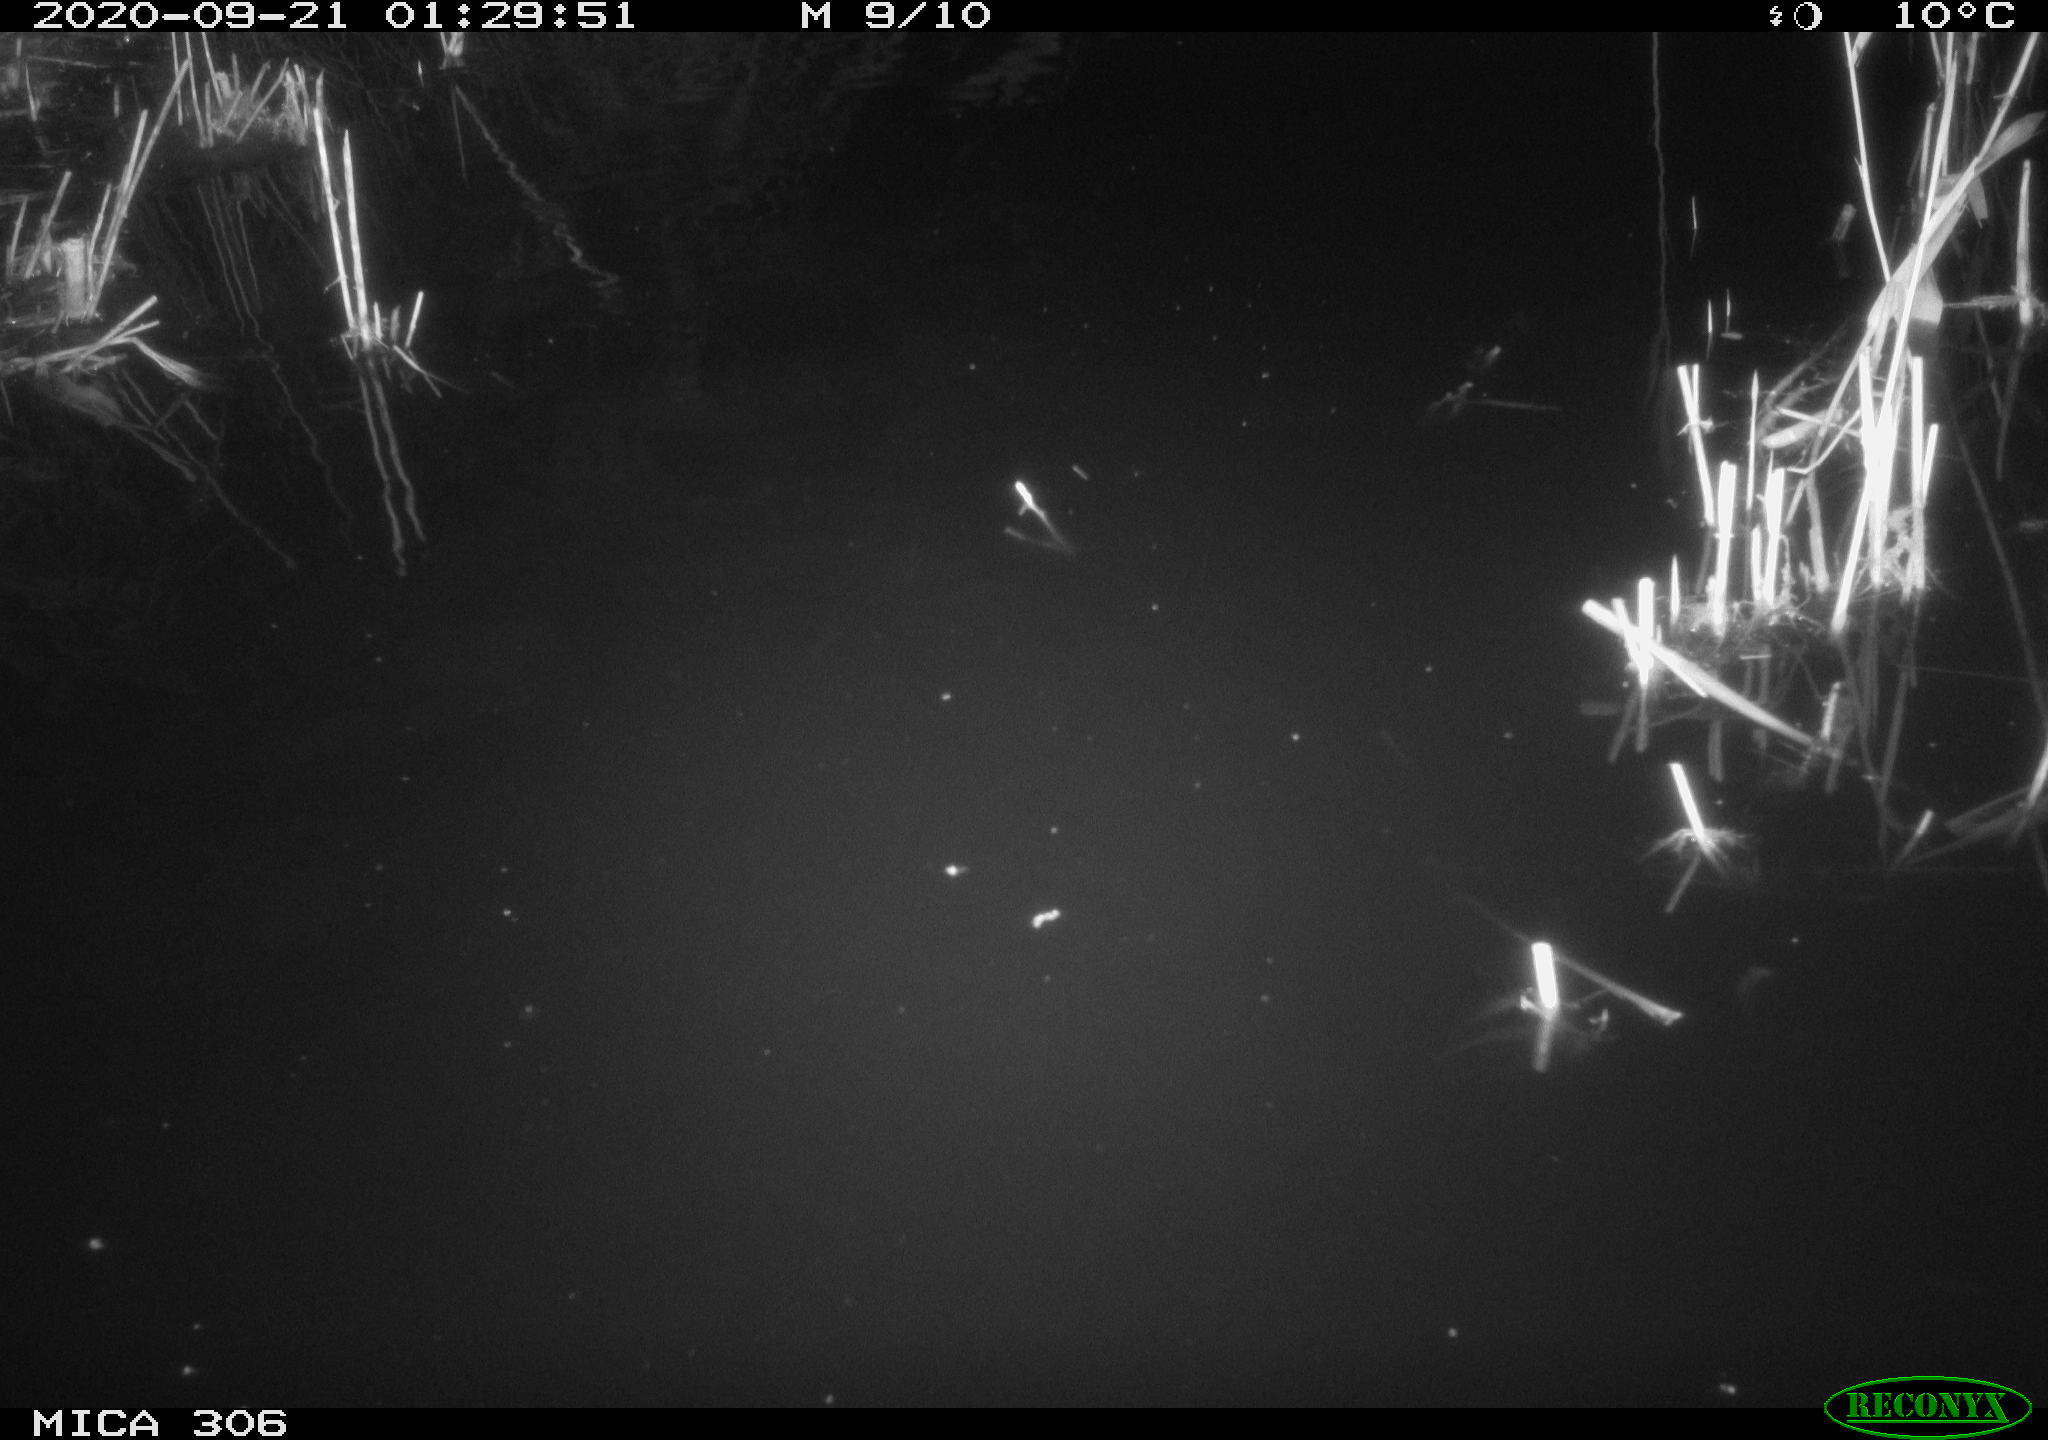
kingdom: Animalia
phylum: Chordata
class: Mammalia
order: Rodentia
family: Muridae
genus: Rattus
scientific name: Rattus norvegicus
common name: Brown rat
